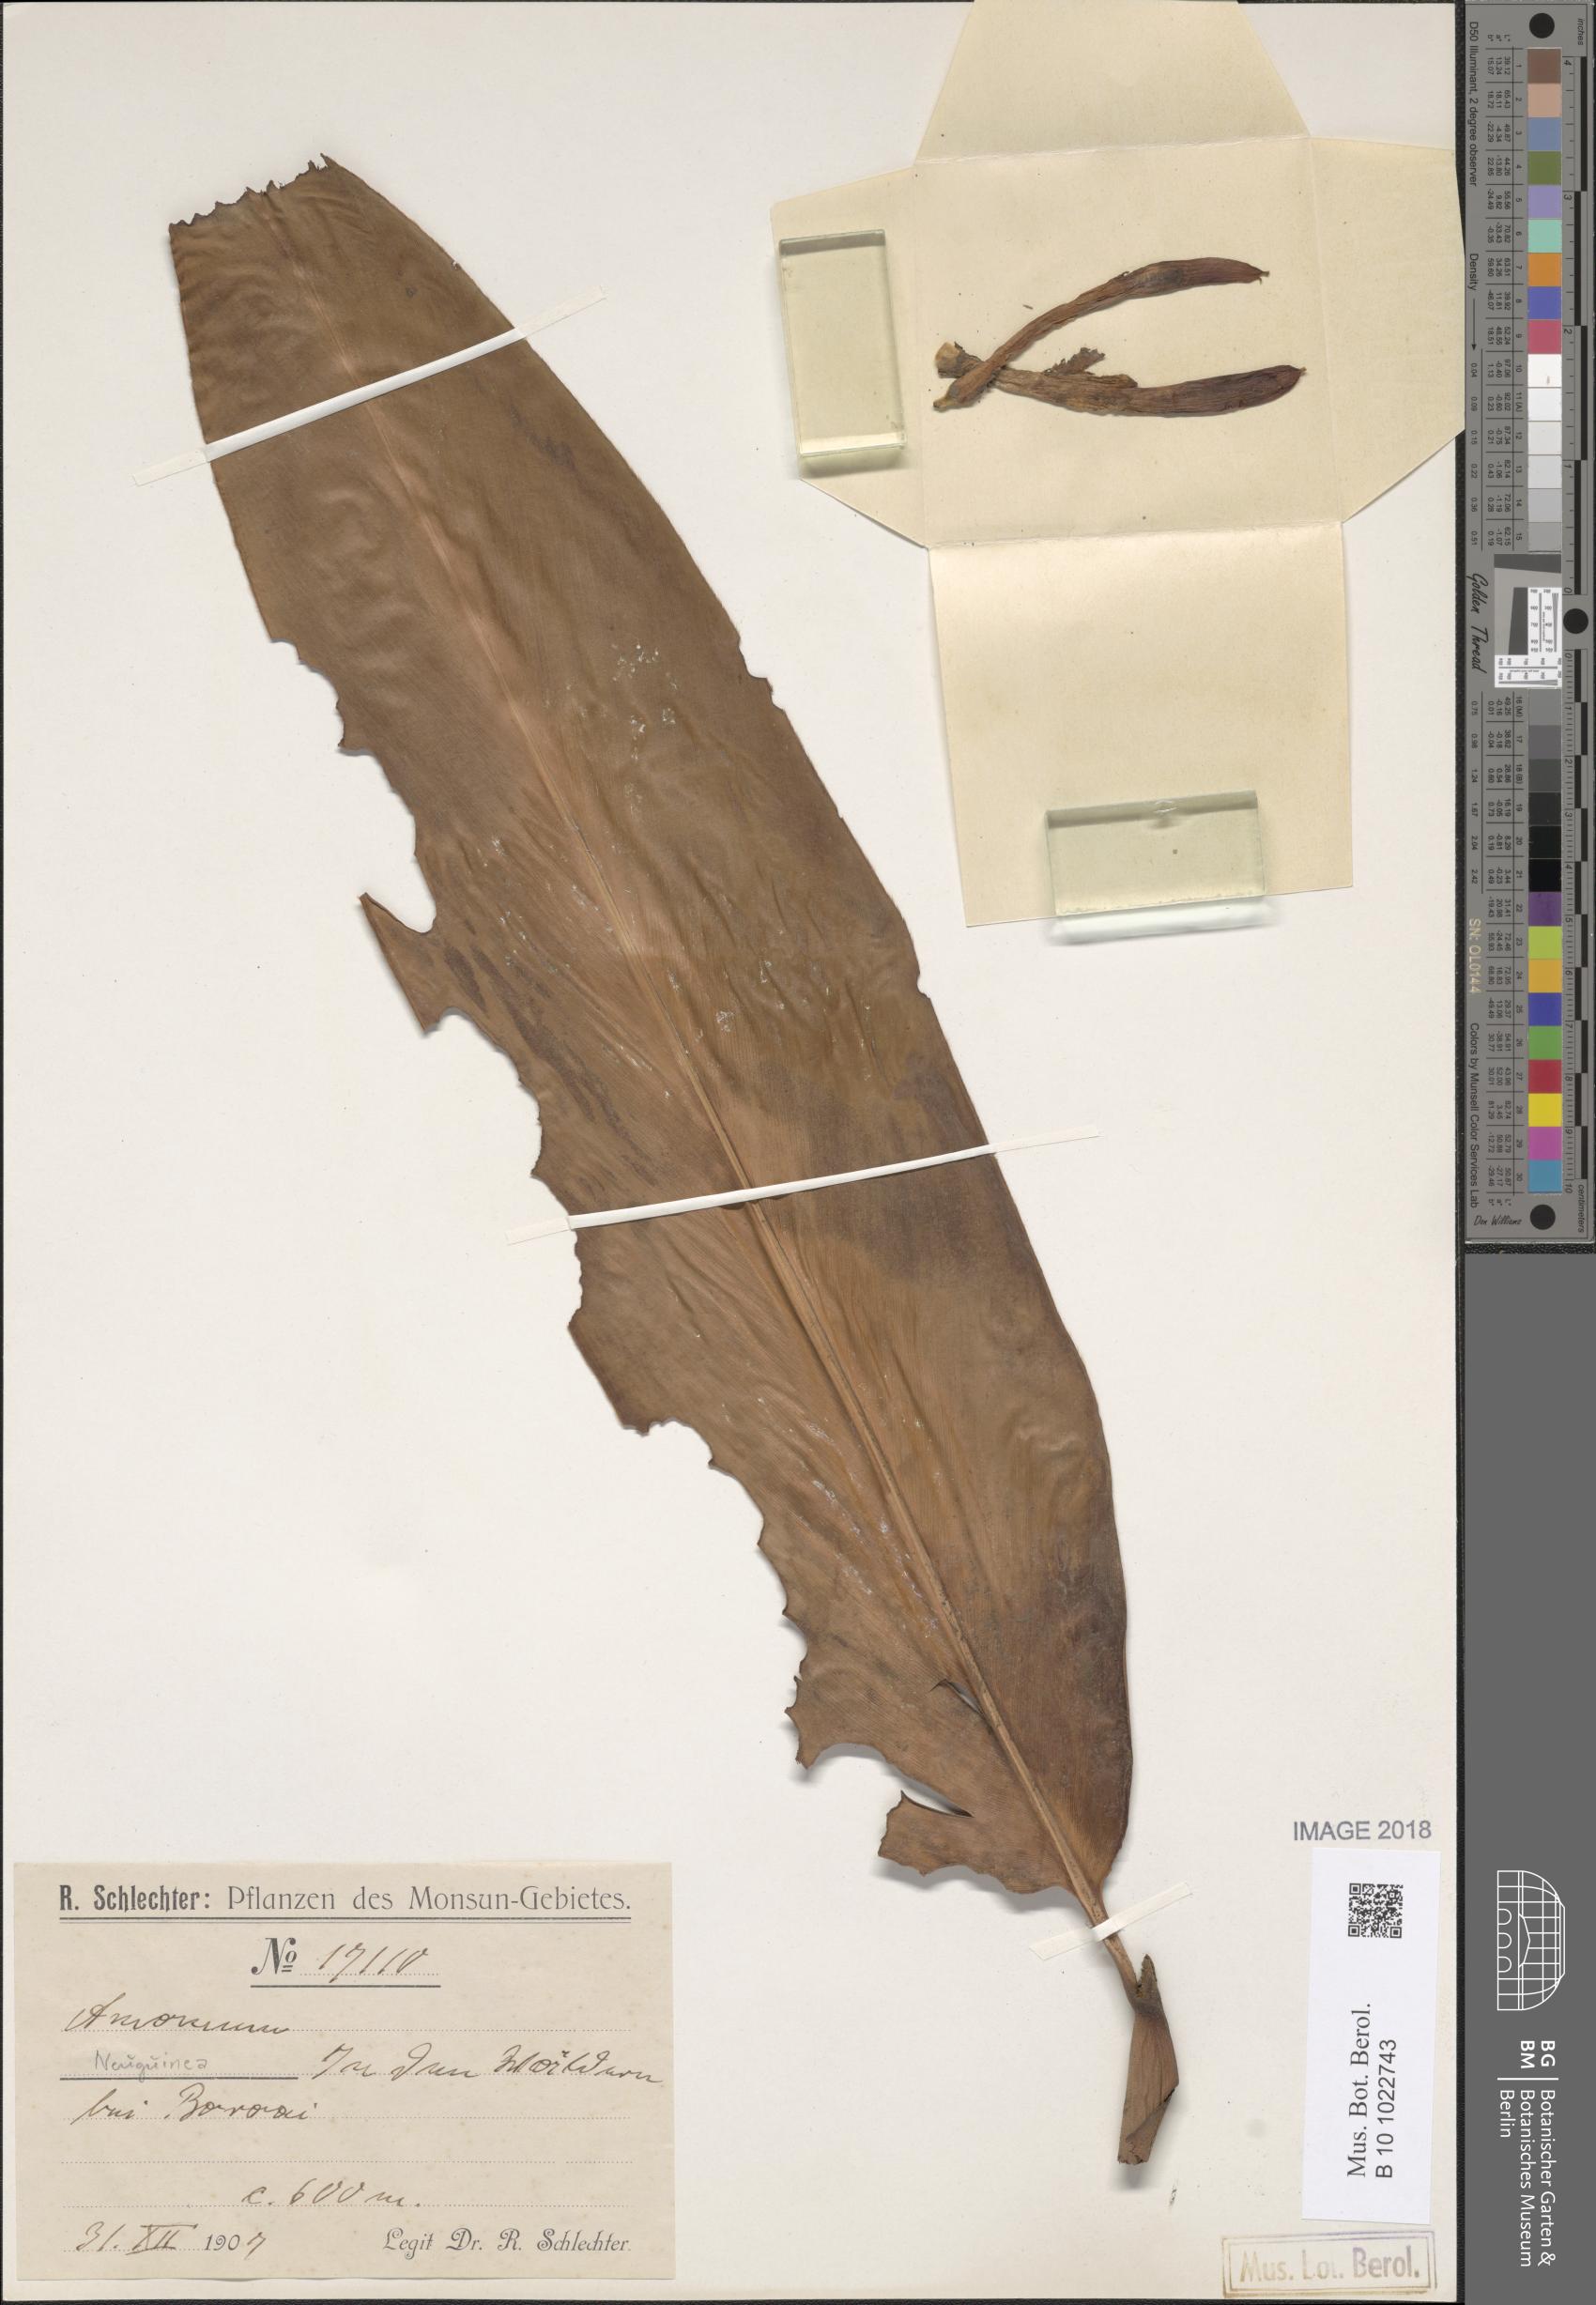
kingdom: Plantae
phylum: Tracheophyta
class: Liliopsida
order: Zingiberales
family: Zingiberaceae
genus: Amomum
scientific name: Amomum
